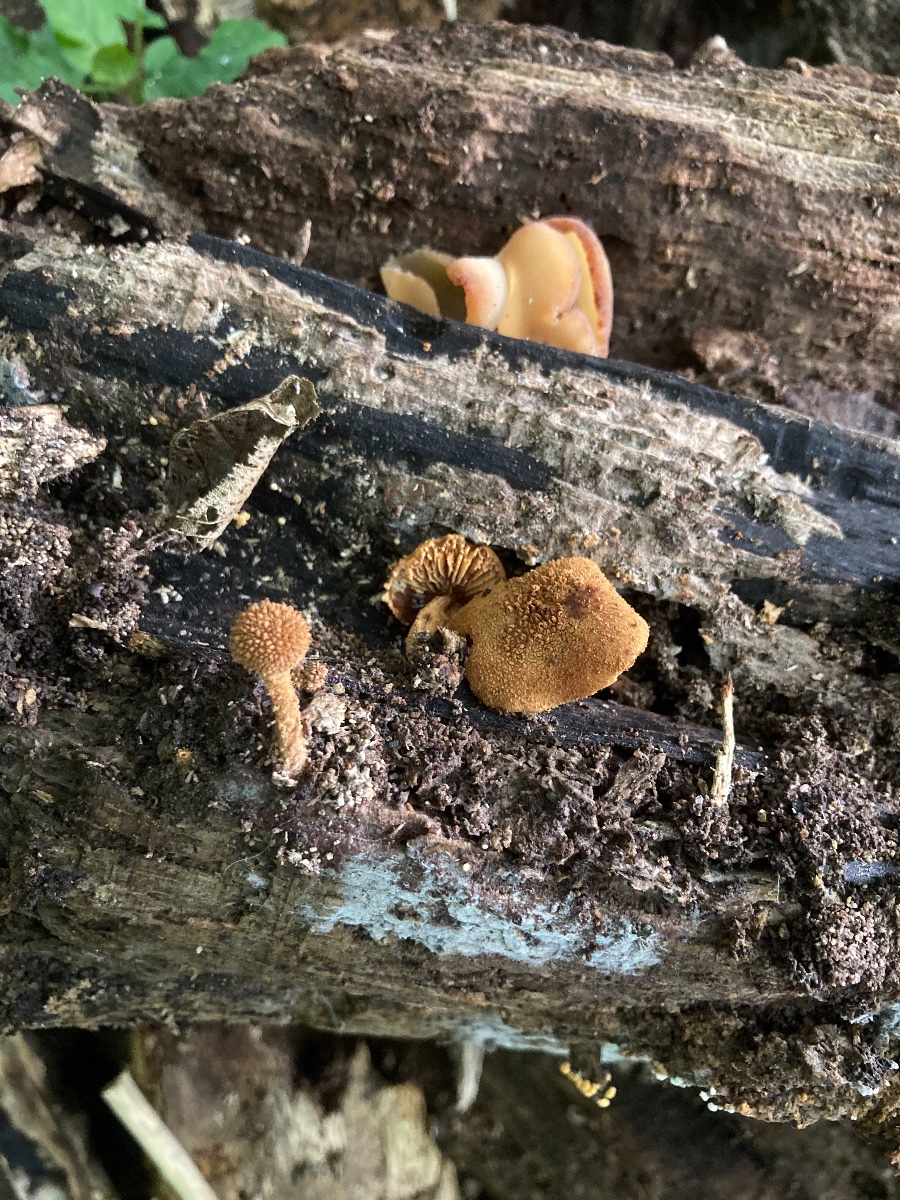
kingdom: Fungi
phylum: Basidiomycota
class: Agaricomycetes
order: Agaricales
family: Tubariaceae
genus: Flammulaster
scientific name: Flammulaster muricatus
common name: pigget grynskælhat
